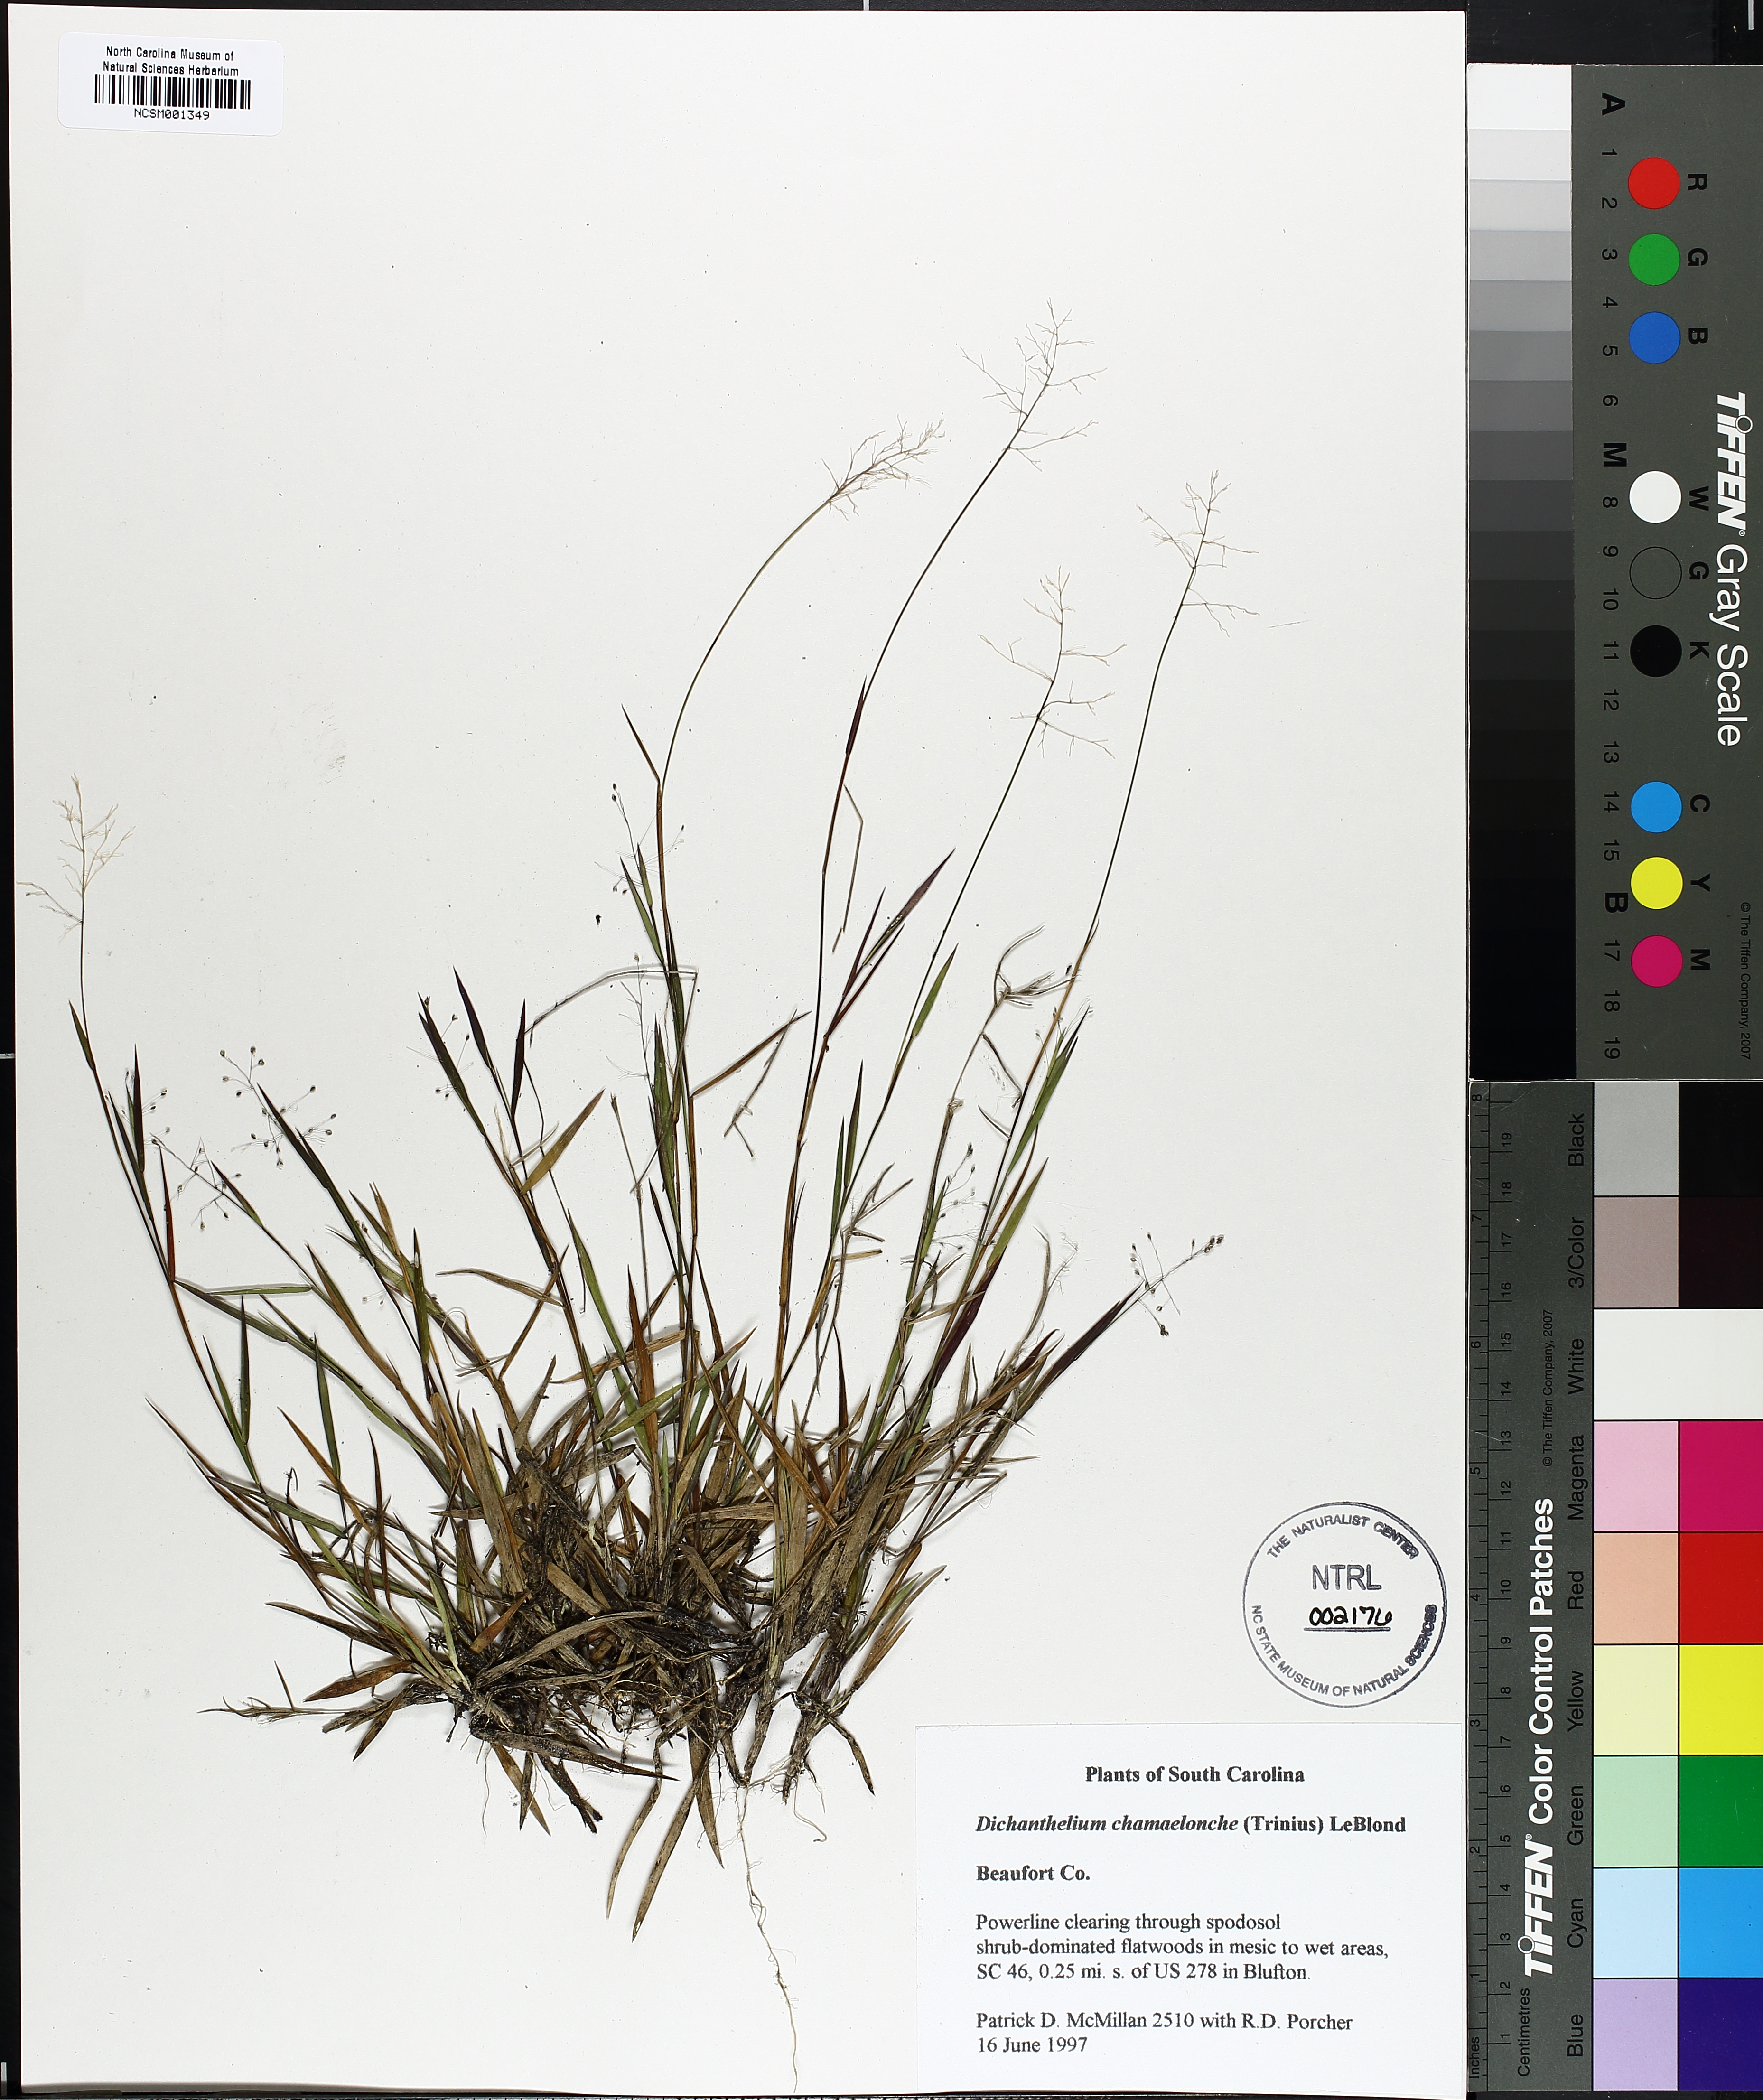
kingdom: Plantae
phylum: Tracheophyta
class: Liliopsida
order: Poales
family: Poaceae
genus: Dichanthelium
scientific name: Dichanthelium chamaelonche
